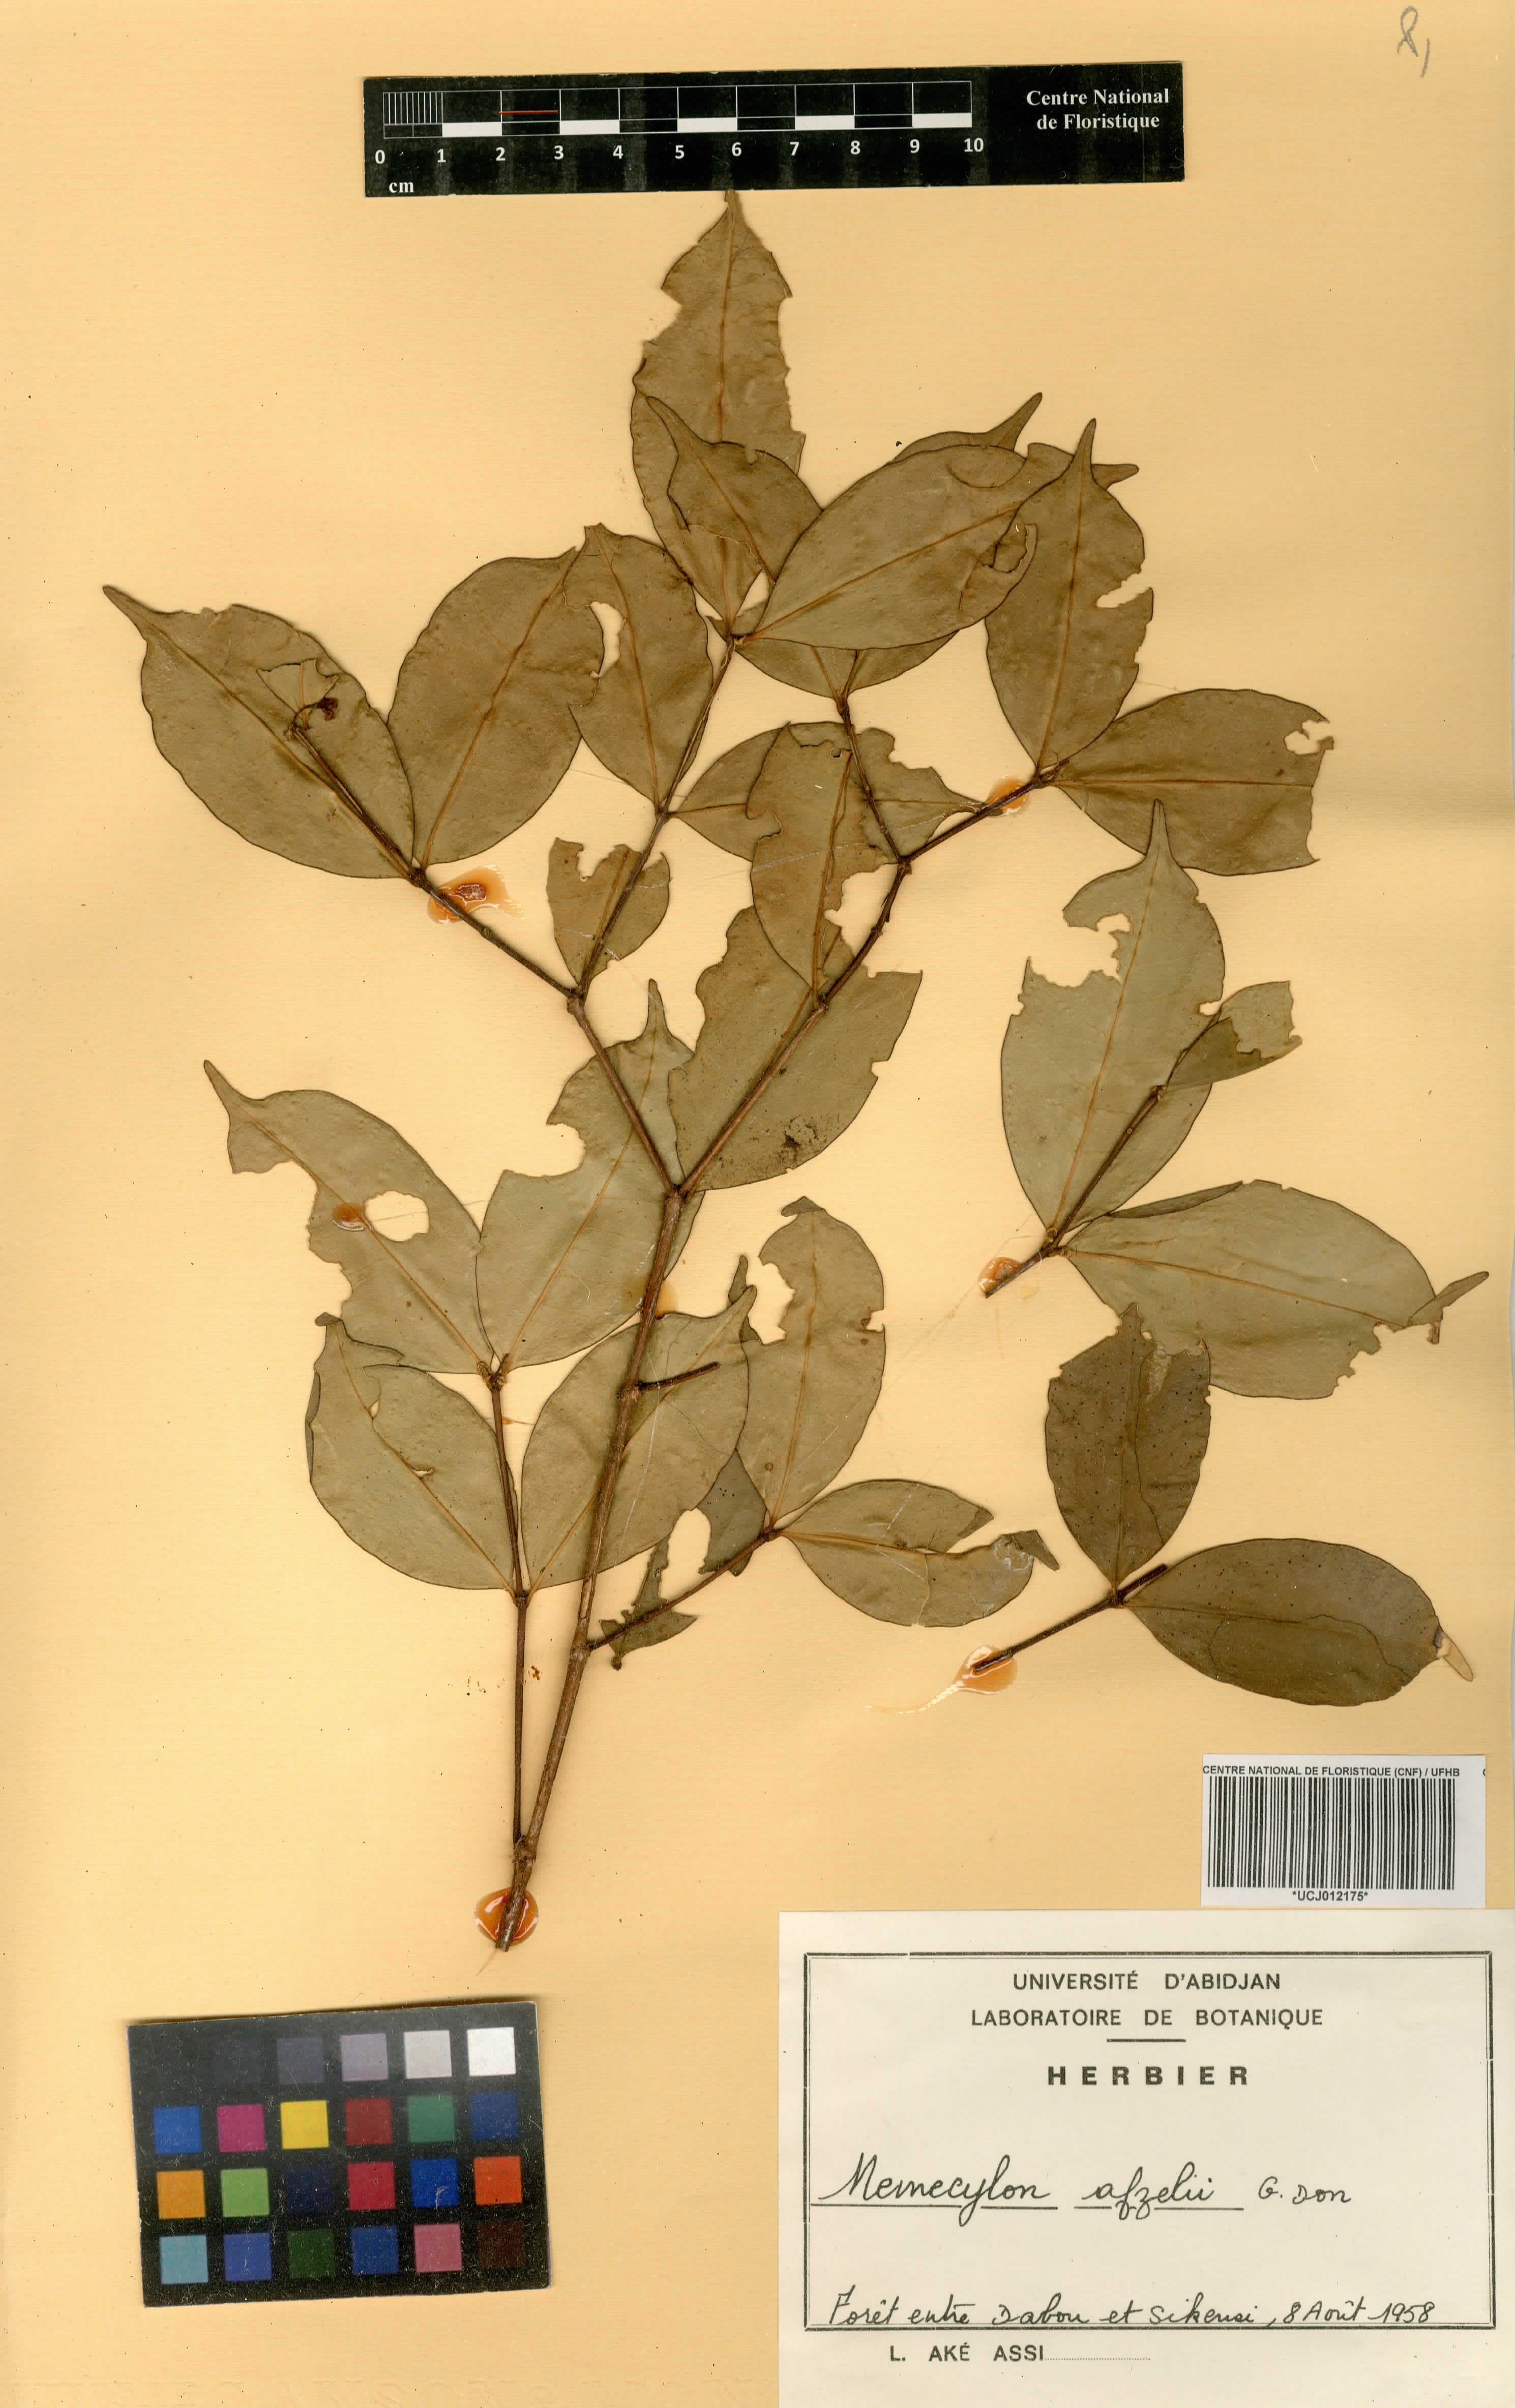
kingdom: Plantae
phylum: Tracheophyta
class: Magnoliopsida
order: Myrtales
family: Melastomataceae
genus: Memecylon
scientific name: Memecylon afzelii
